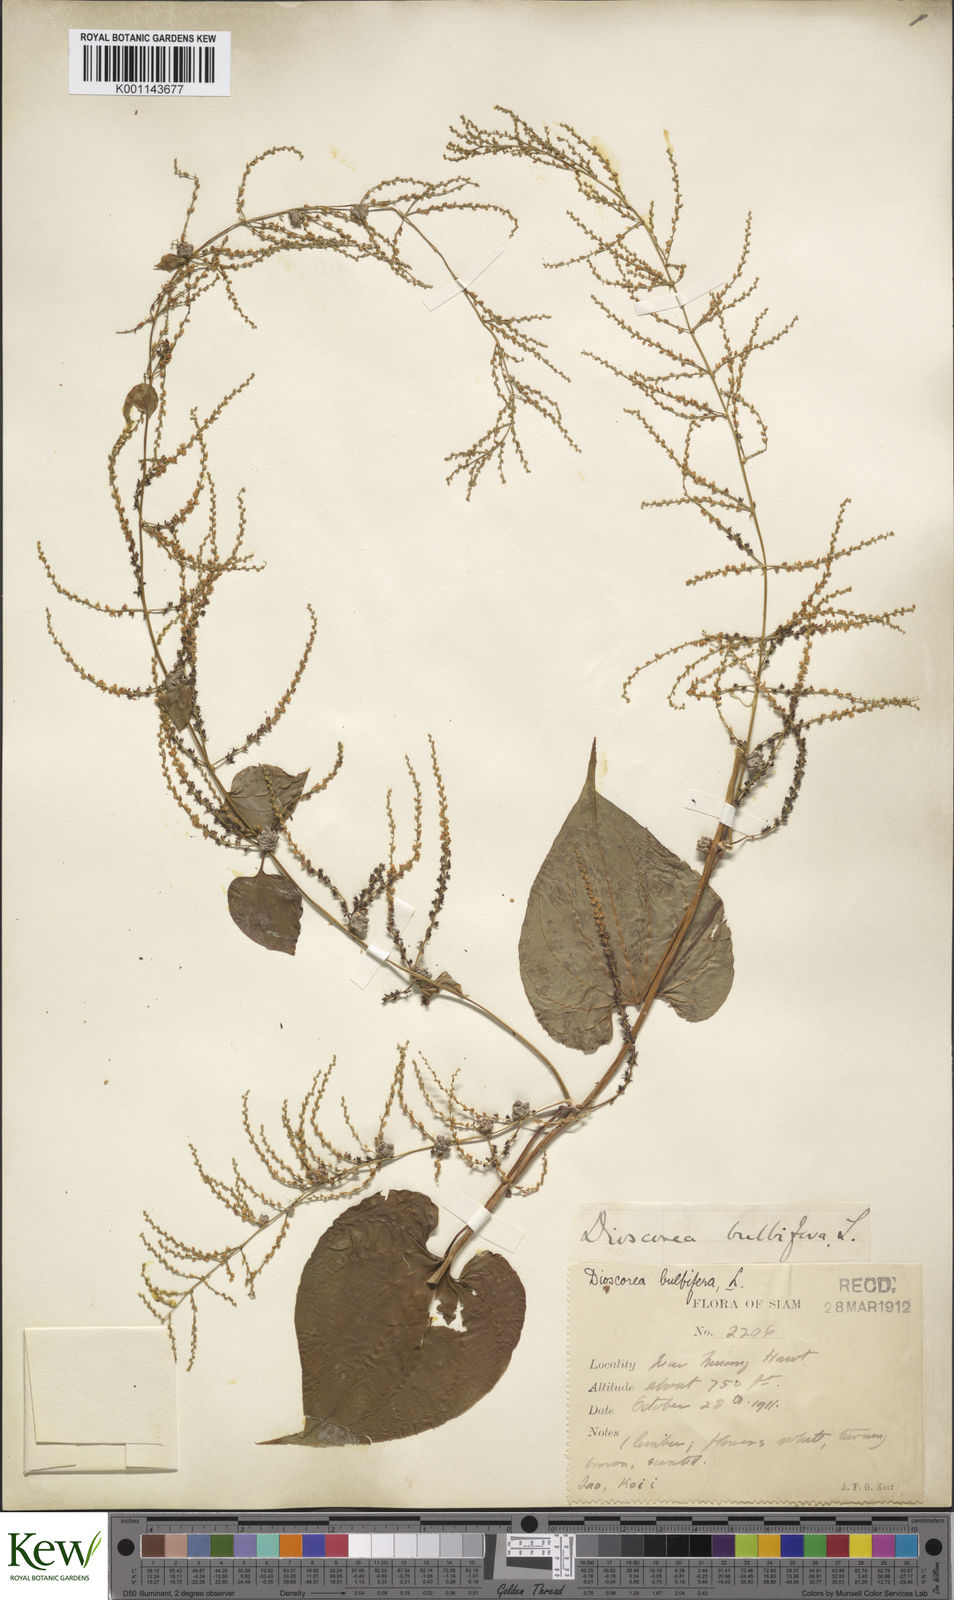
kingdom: Plantae
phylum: Tracheophyta
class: Liliopsida
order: Dioscoreales
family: Dioscoreaceae
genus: Dioscorea
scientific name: Dioscorea bulbifera
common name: Air yam
